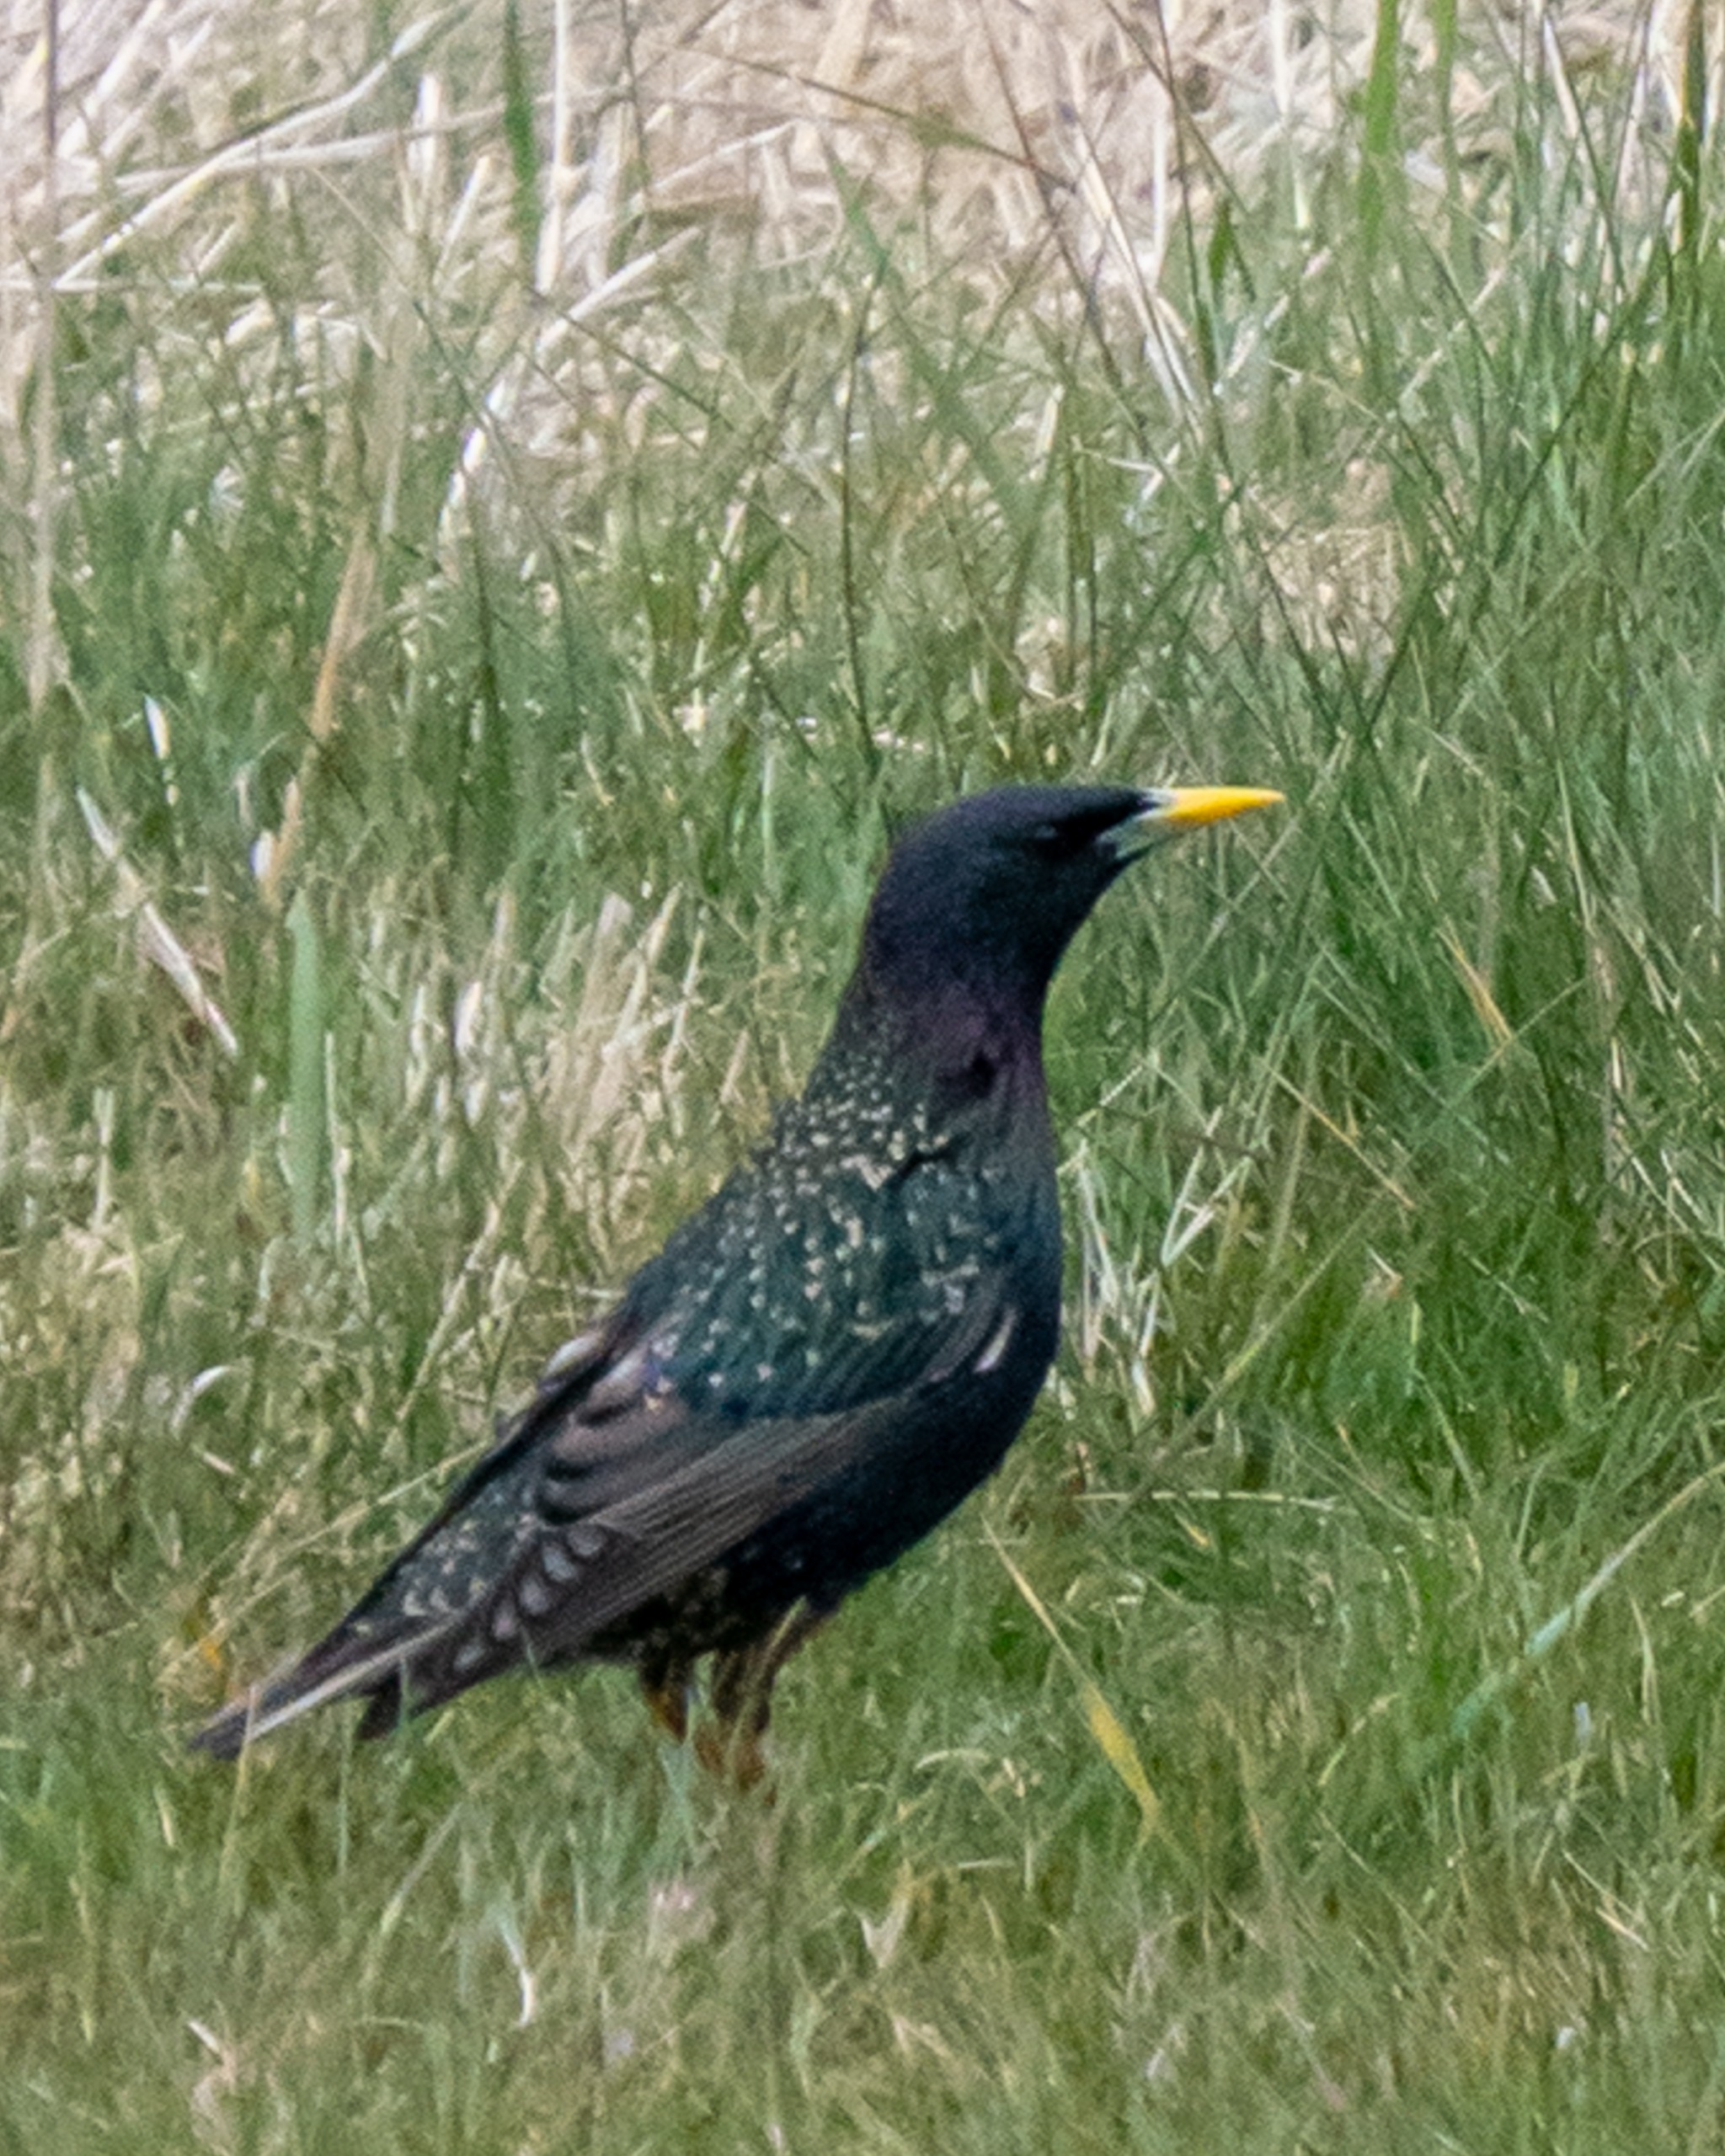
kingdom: Animalia
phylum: Chordata
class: Aves
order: Passeriformes
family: Sturnidae
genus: Sturnus
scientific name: Sturnus vulgaris
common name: Stær
